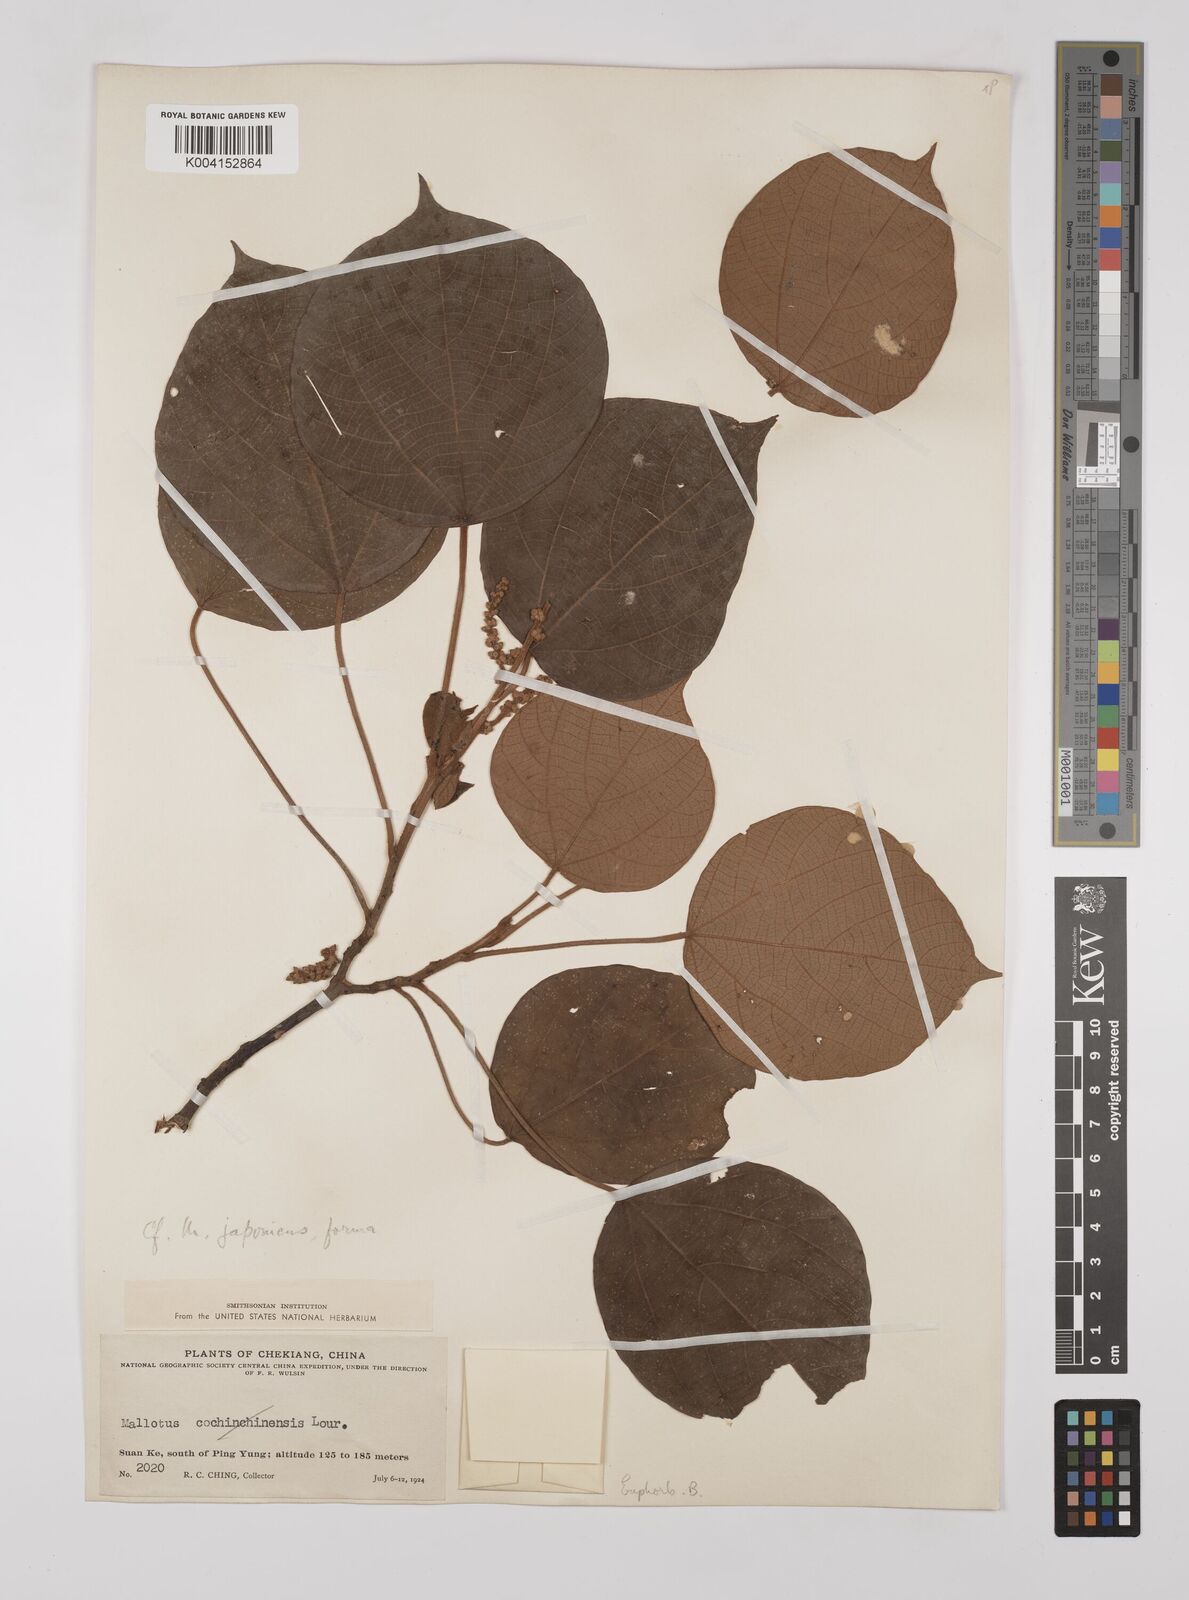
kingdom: Plantae
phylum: Tracheophyta
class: Magnoliopsida
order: Malpighiales
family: Euphorbiaceae
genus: Mallotus
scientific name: Mallotus lianus
